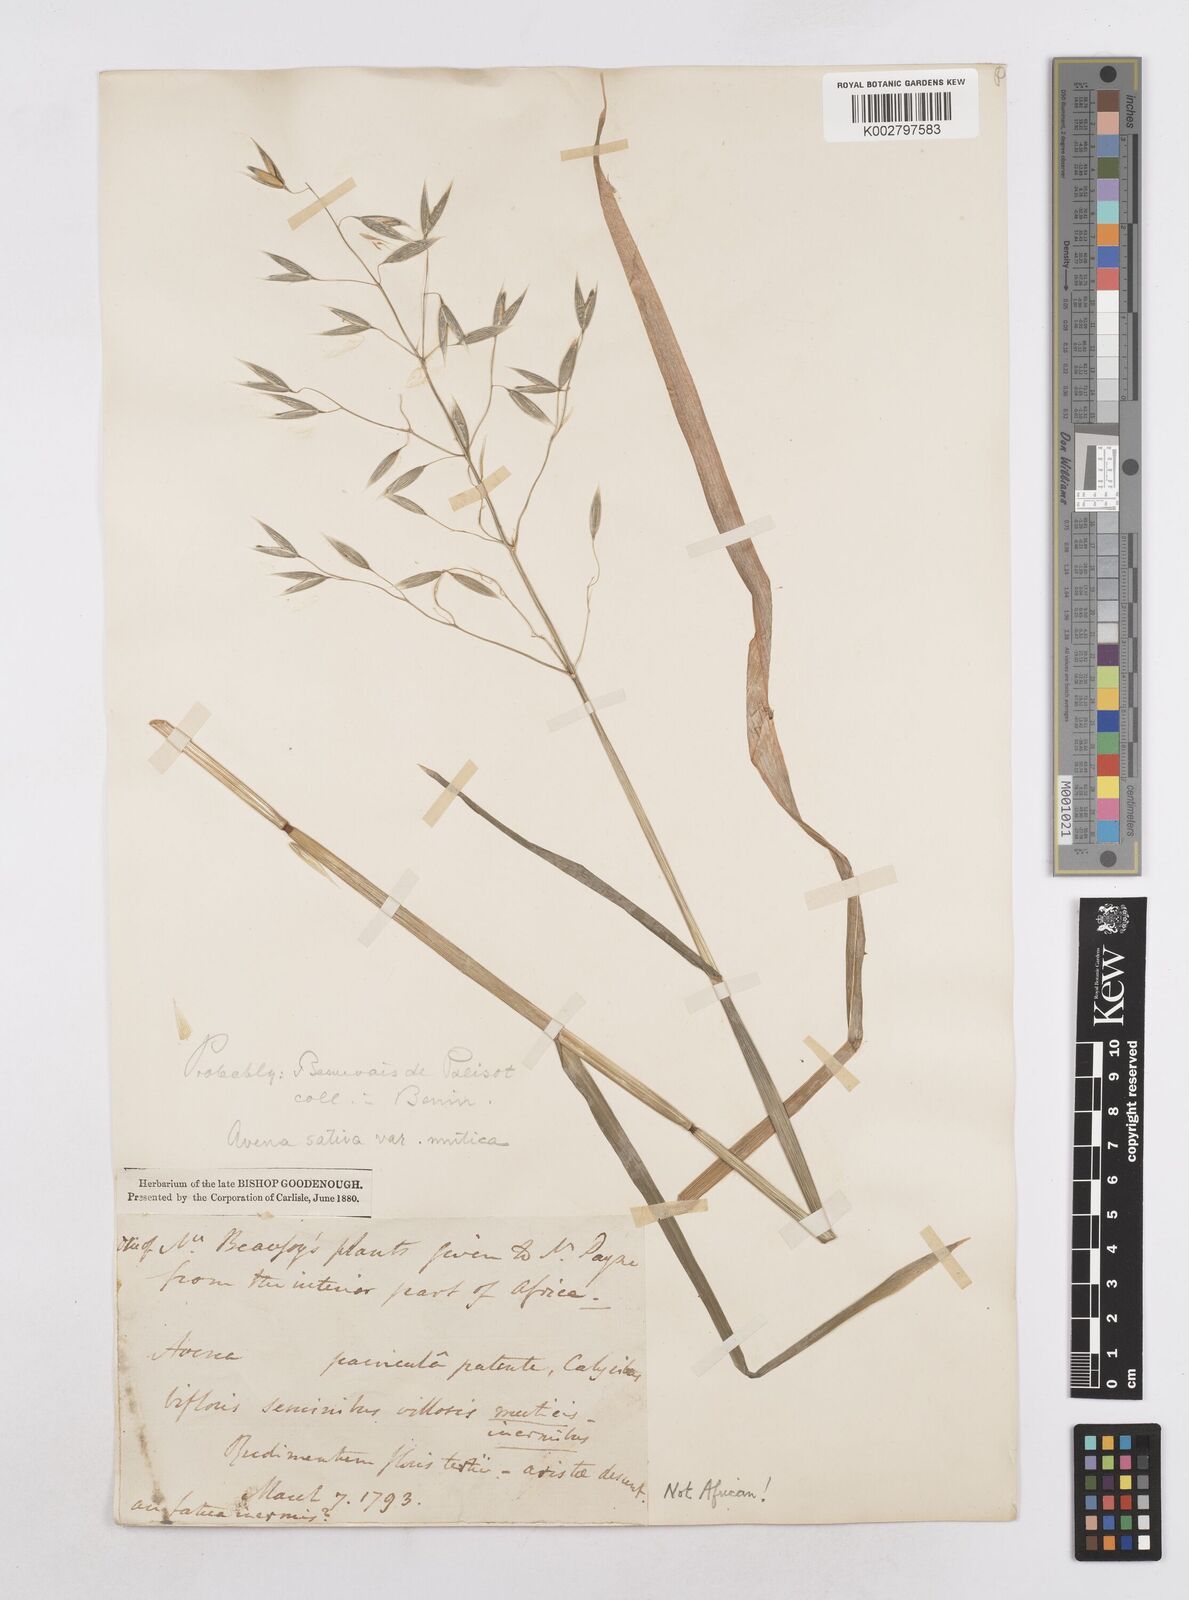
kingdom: Plantae
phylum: Tracheophyta
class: Liliopsida
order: Poales
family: Poaceae
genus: Avena
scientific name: Avena sativa
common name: Oat
